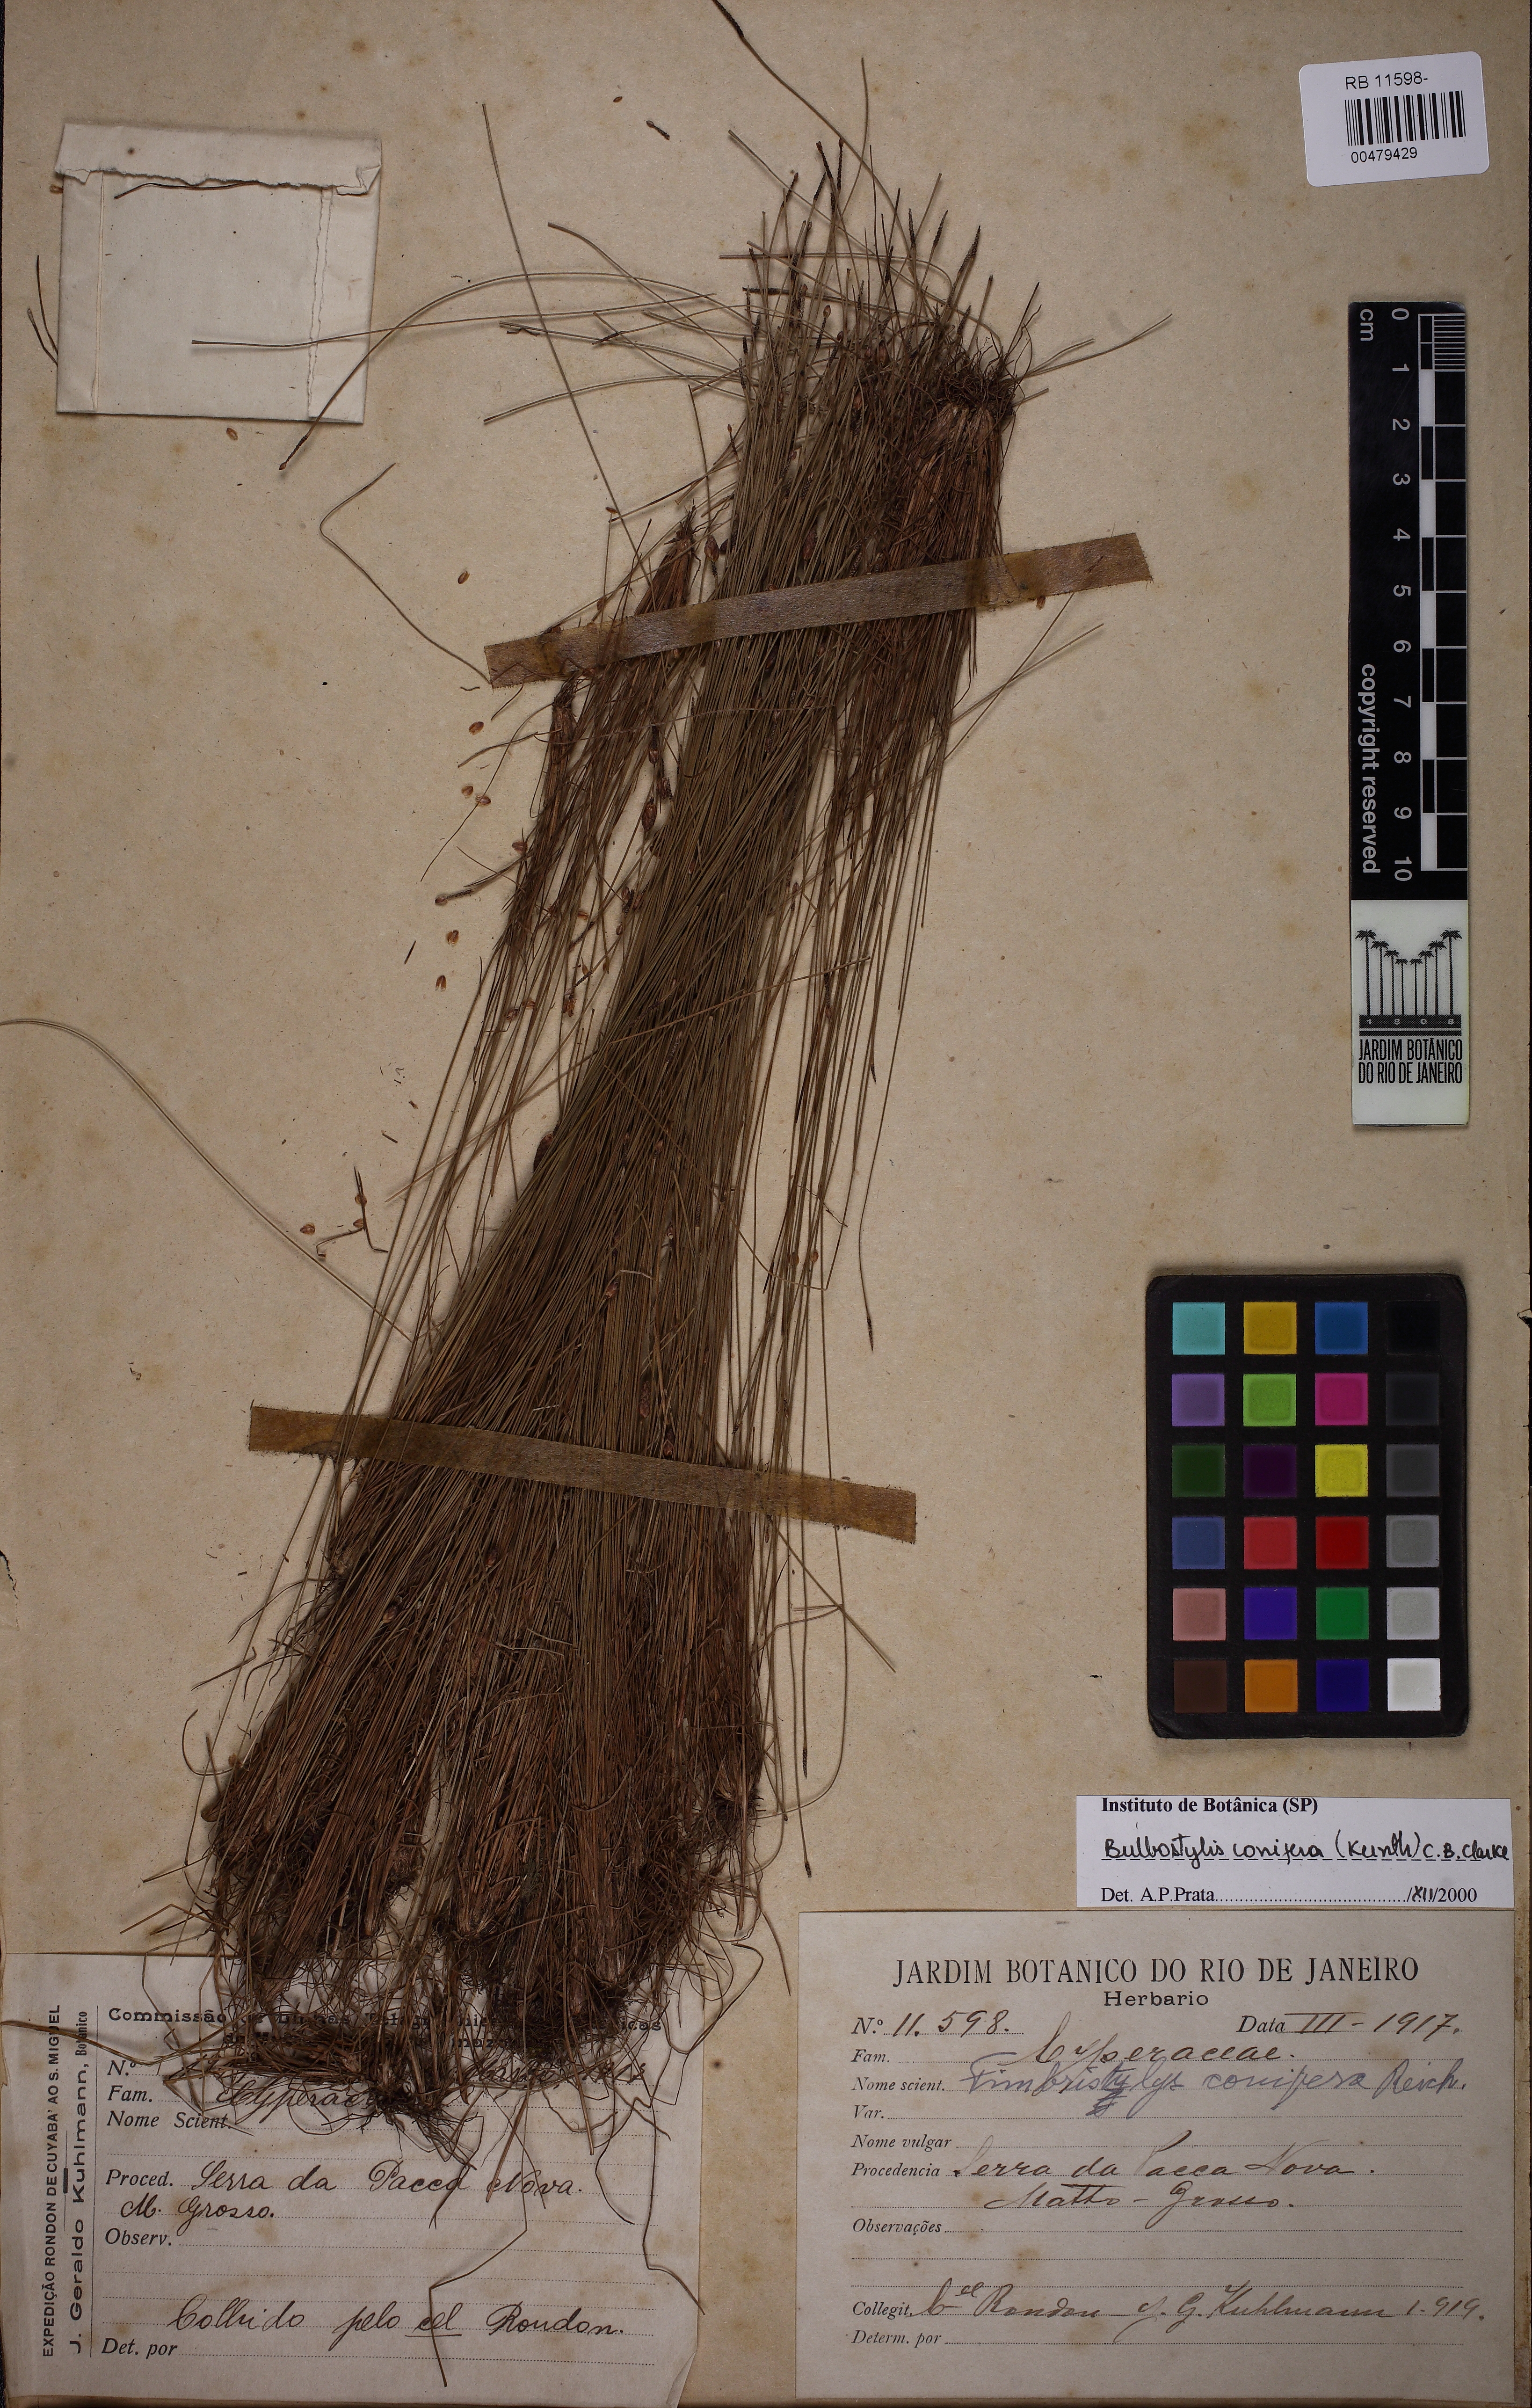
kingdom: Plantae
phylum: Tracheophyta
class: Liliopsida
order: Poales
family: Cyperaceae
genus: Bulbostylis
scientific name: Bulbostylis conifera
